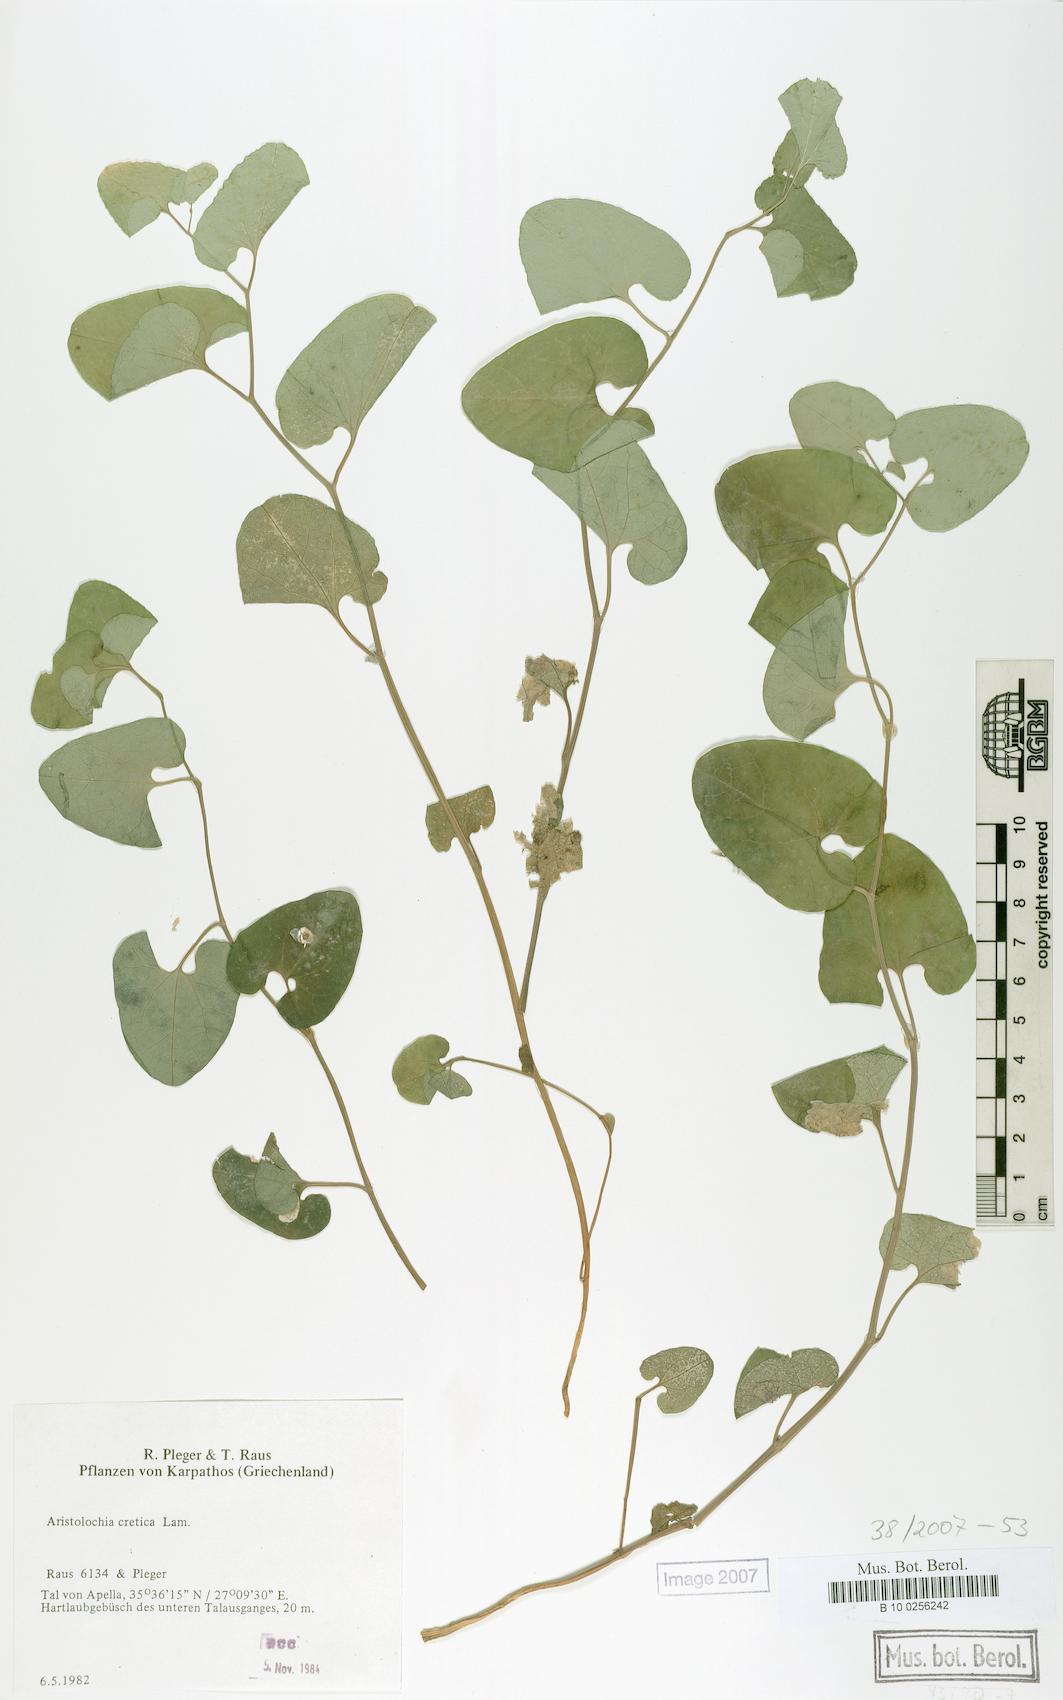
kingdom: Plantae
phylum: Tracheophyta
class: Magnoliopsida
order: Piperales
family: Aristolochiaceae
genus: Aristolochia
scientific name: Aristolochia cretica
